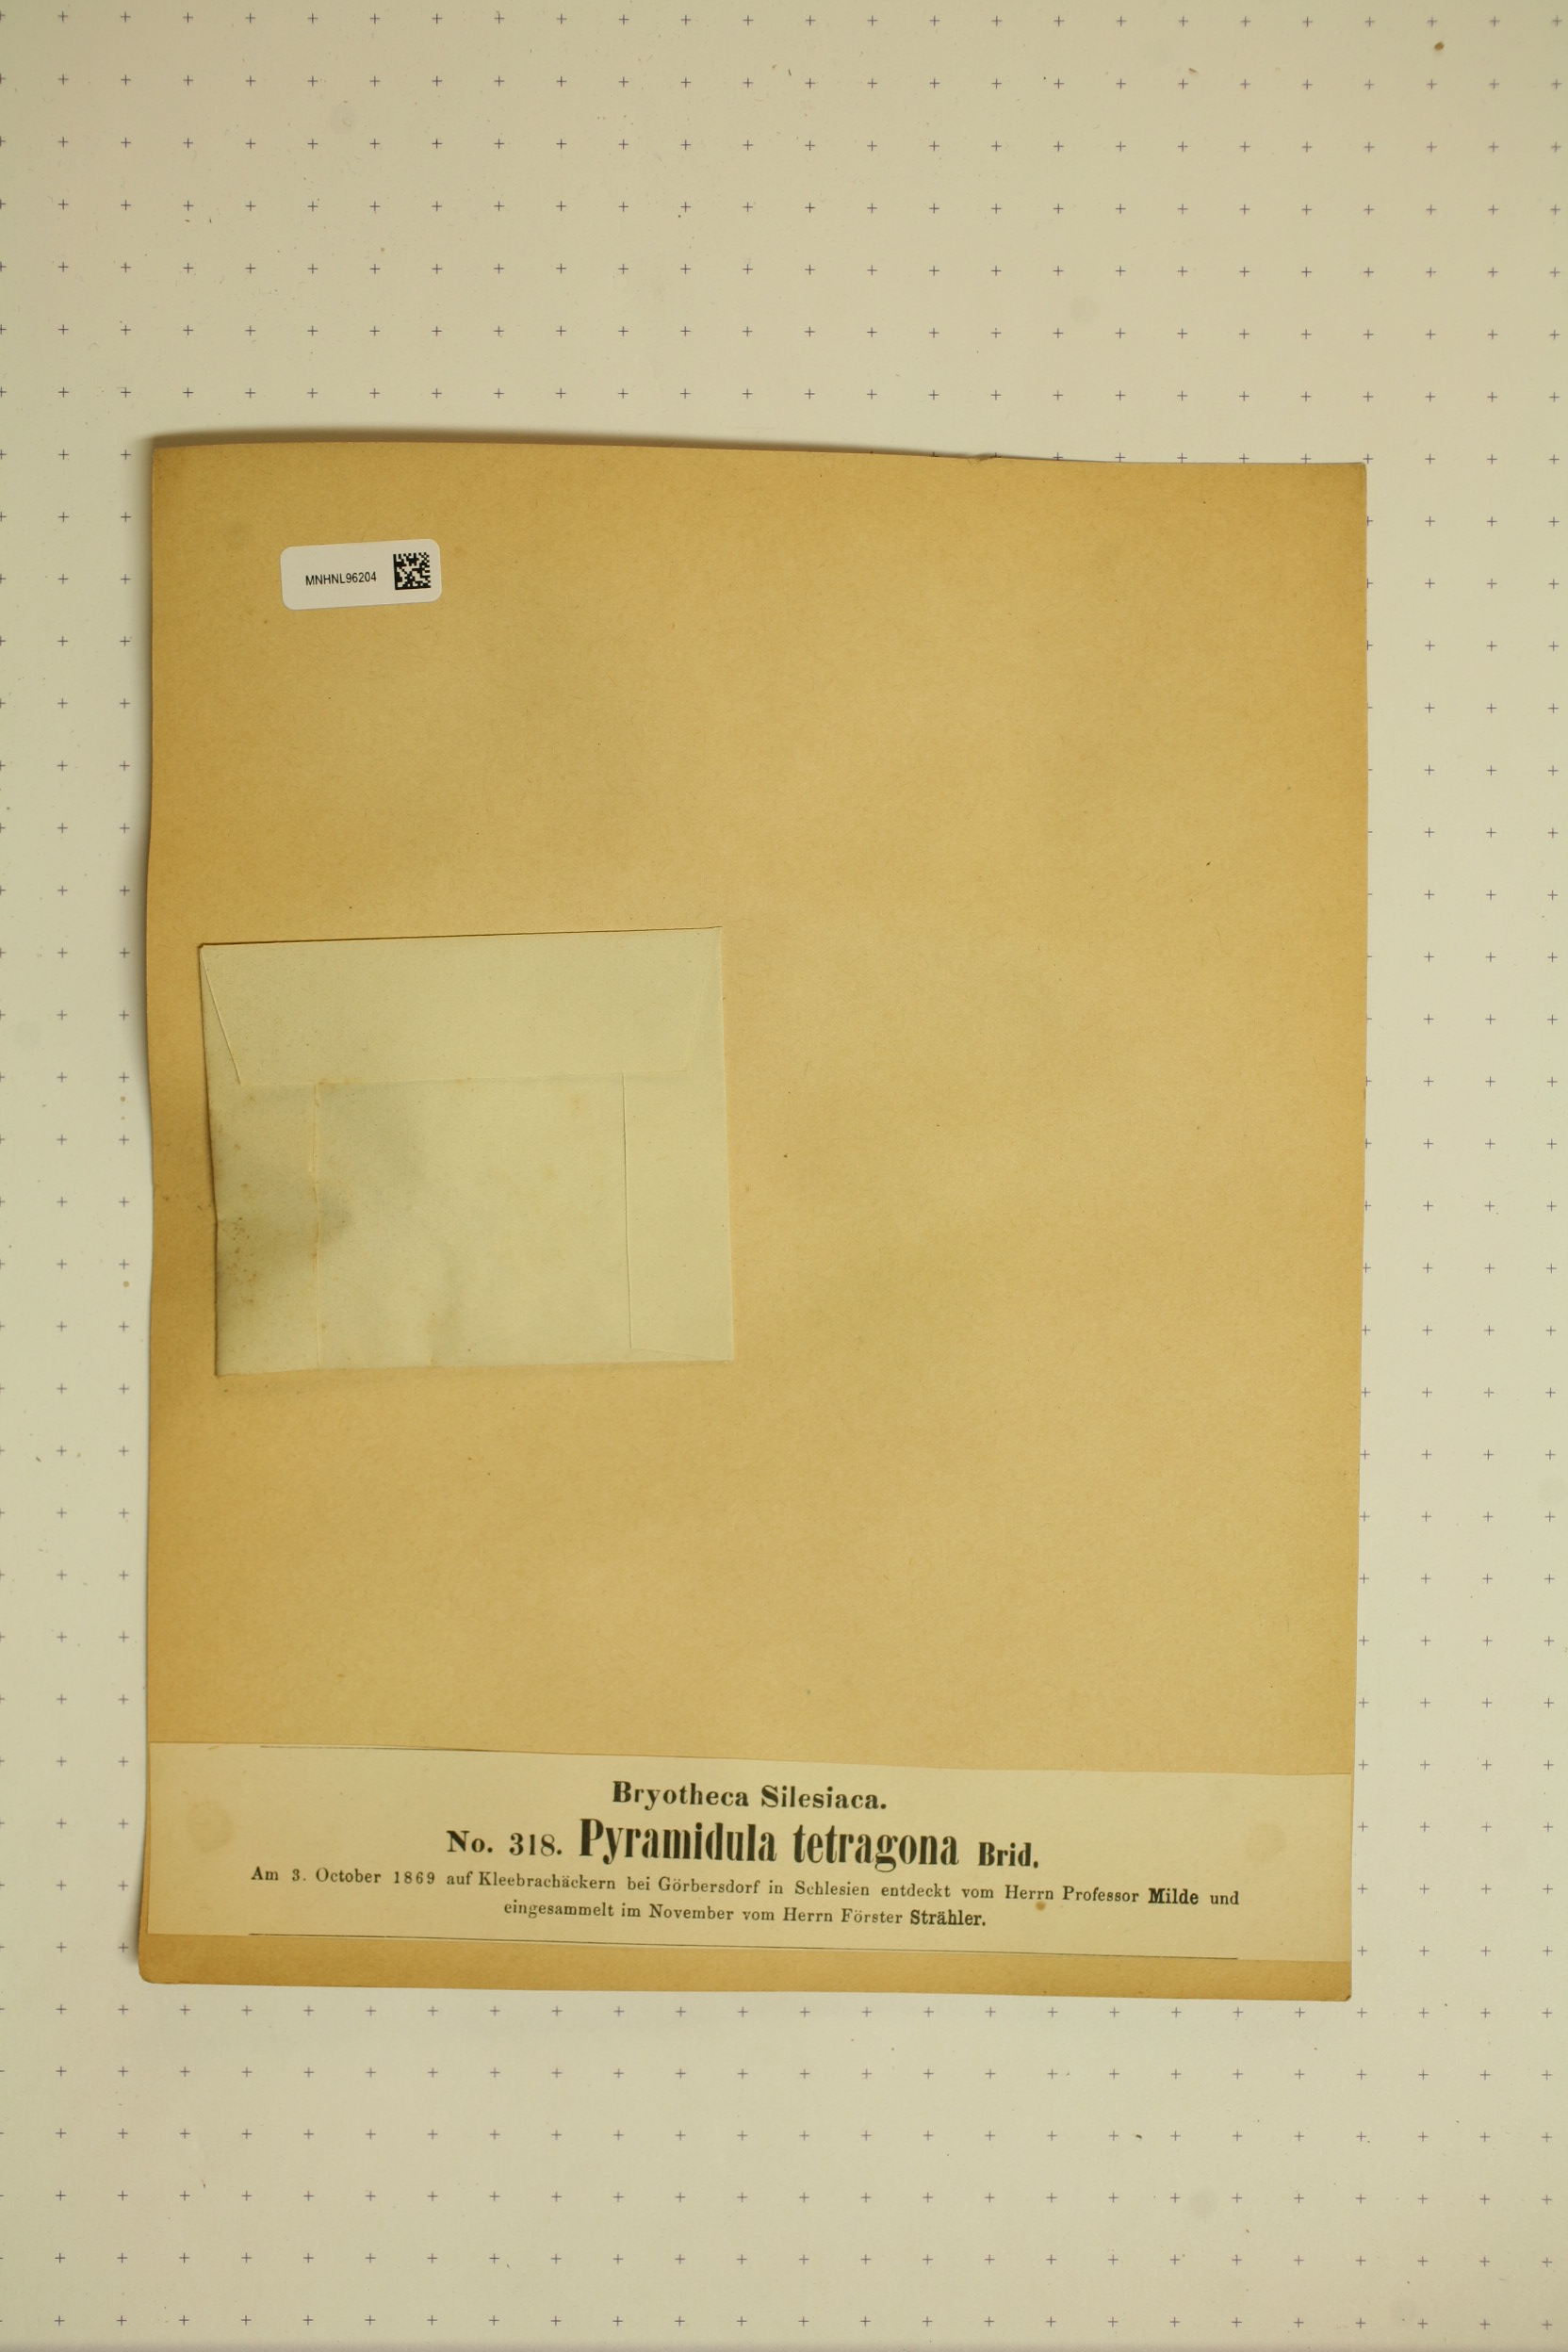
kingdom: Animalia
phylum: Mollusca
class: Gastropoda
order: Stylommatophora
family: Pyramidulidae
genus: Pyramidula
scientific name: Pyramidula
